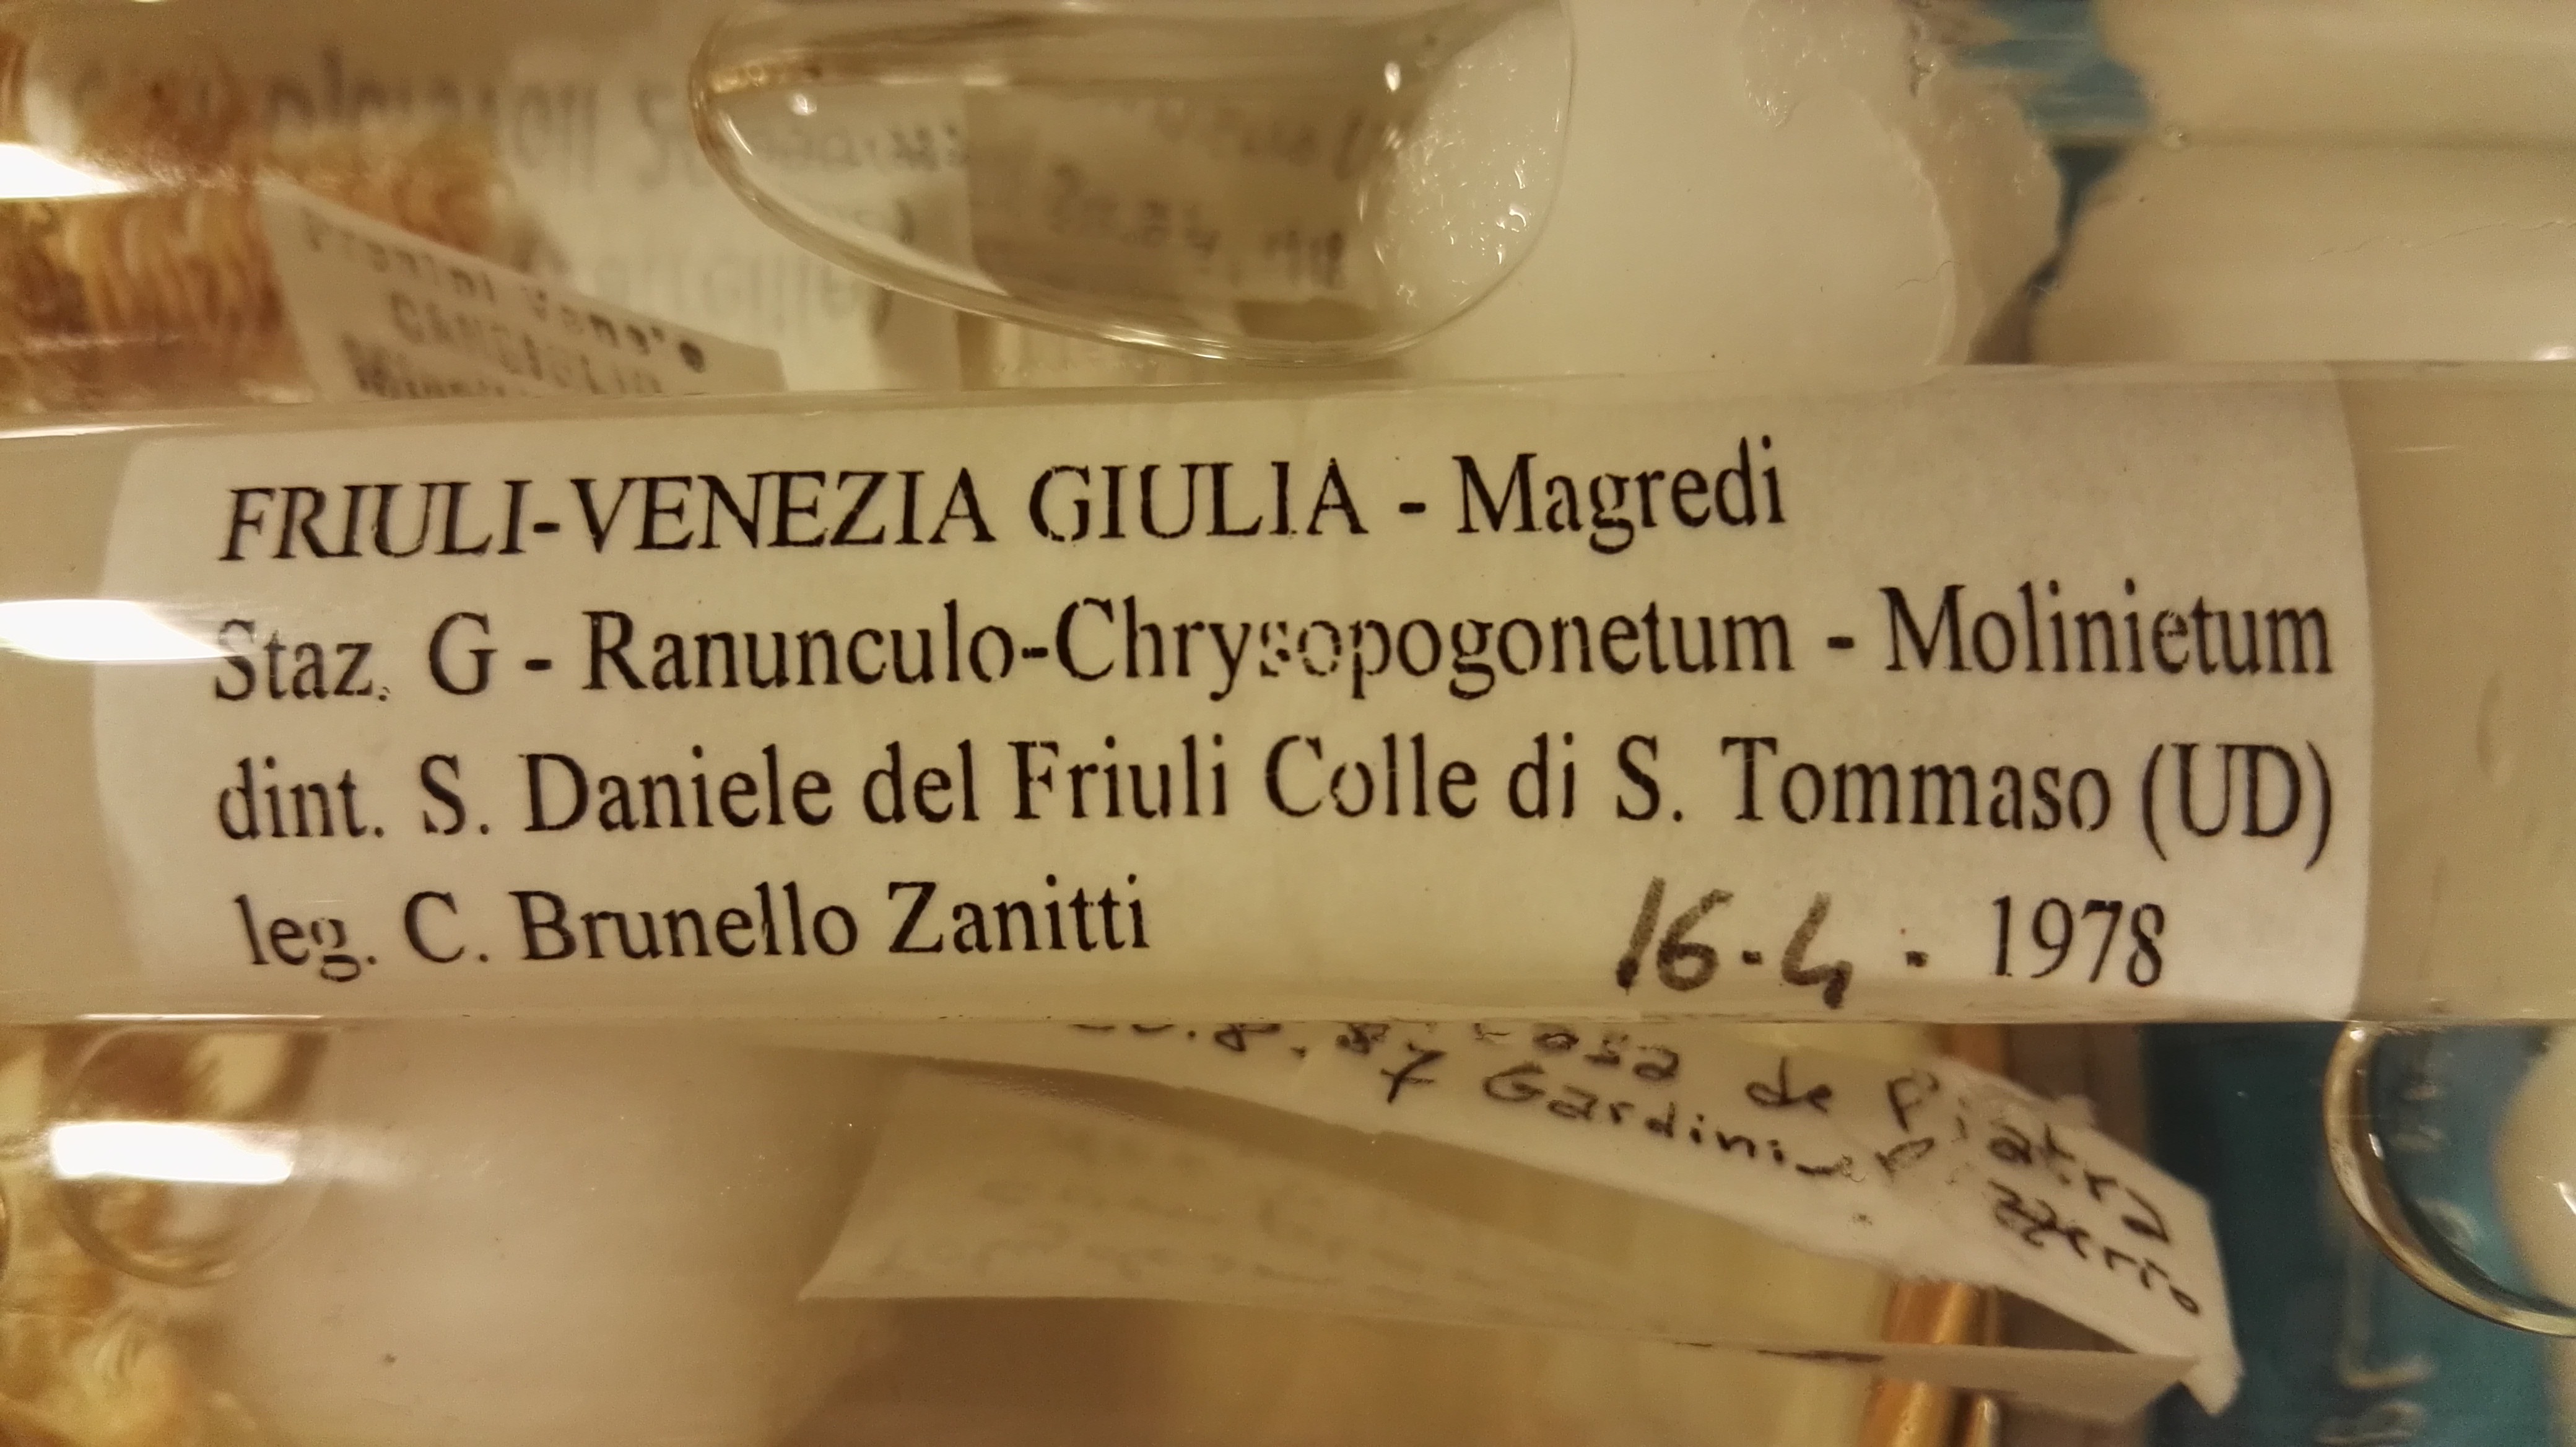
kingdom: Animalia
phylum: Arthropoda
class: Diplopoda
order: Polydesmida
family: Polydesmidae
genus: Polydesmus
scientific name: Polydesmus complanatus
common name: Flat-backed millipede
